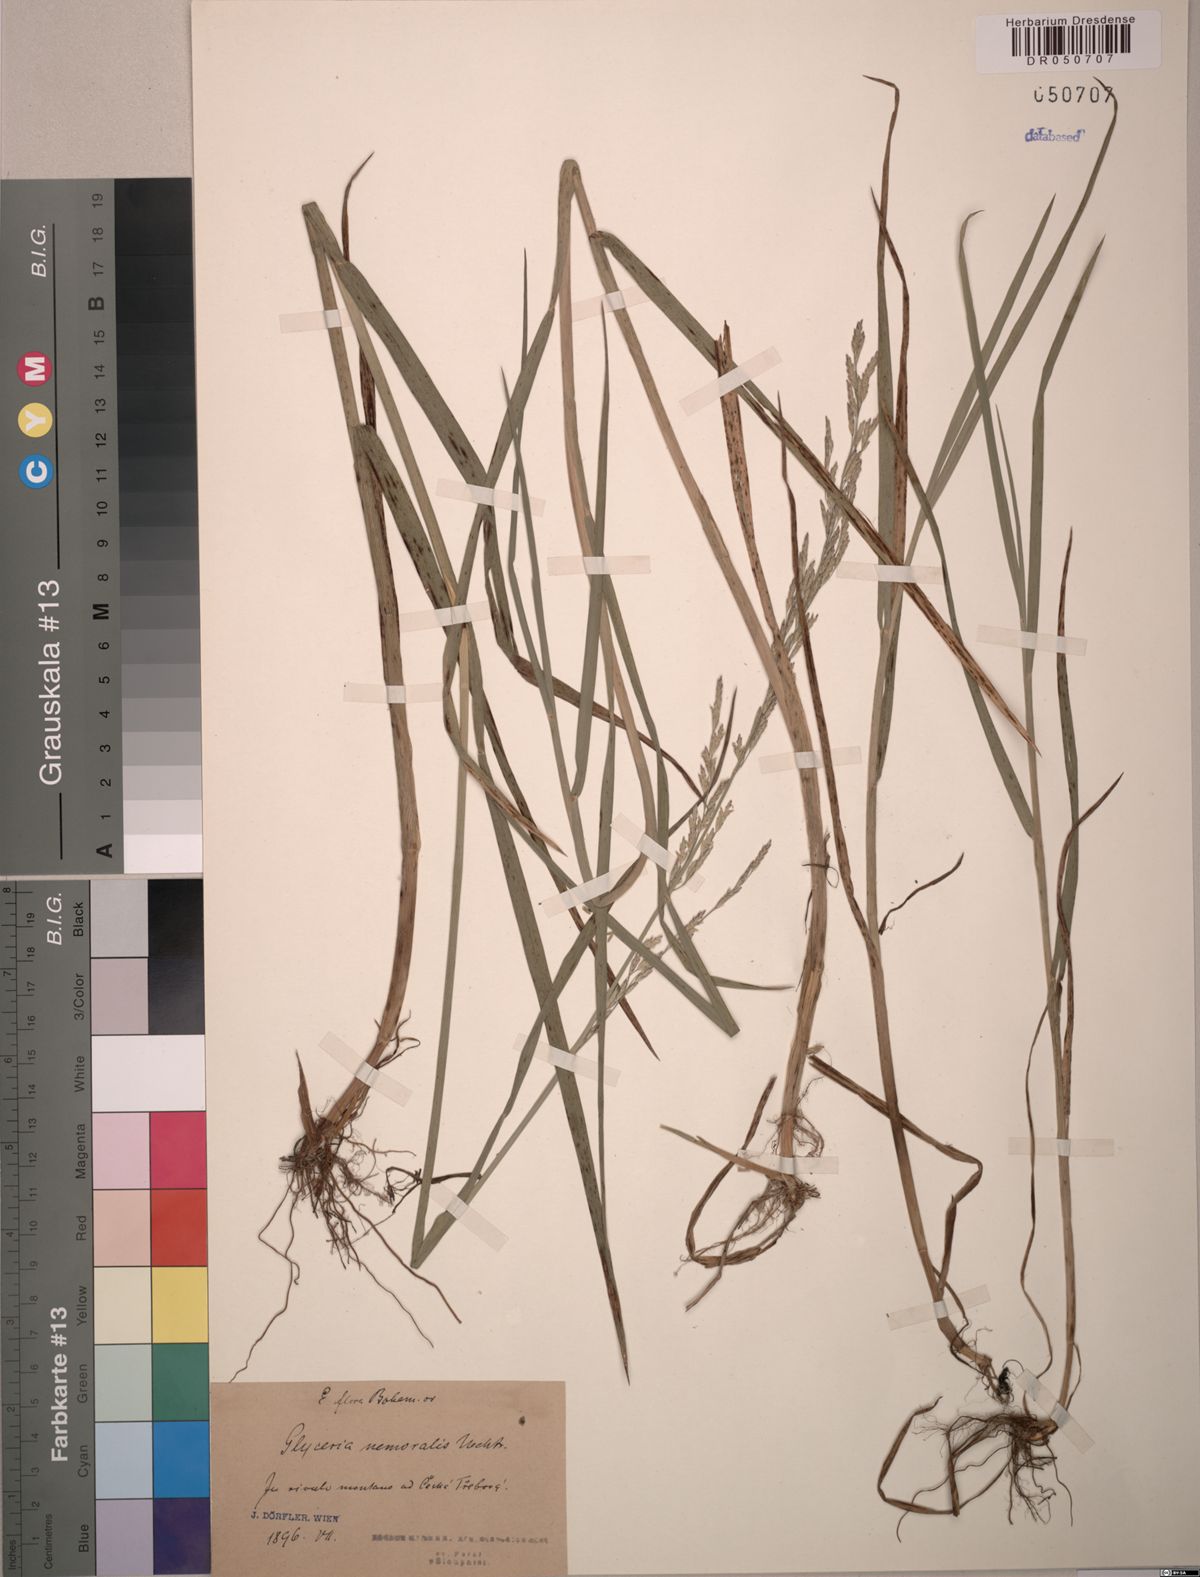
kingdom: Plantae
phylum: Tracheophyta
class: Liliopsida
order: Poales
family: Poaceae
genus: Glyceria
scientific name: Glyceria nemoralis
